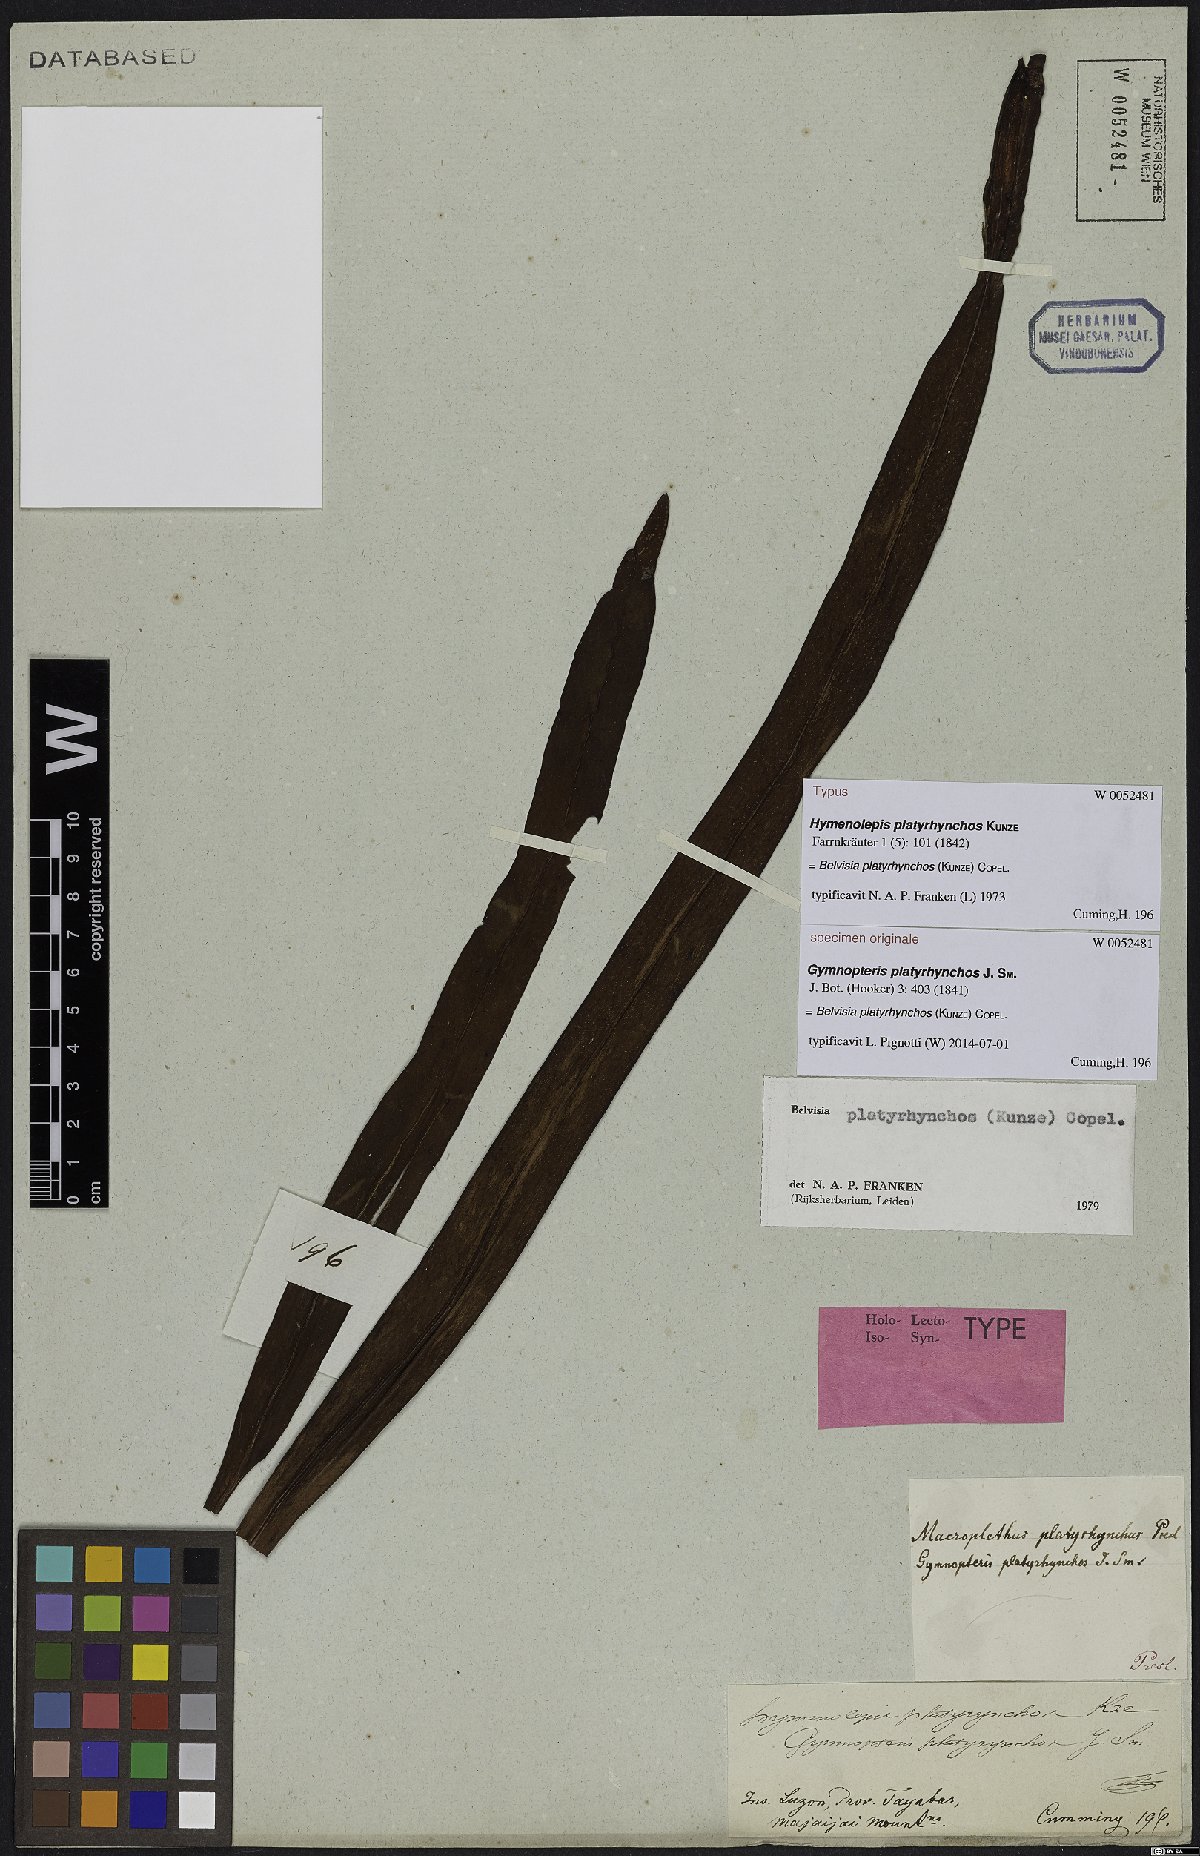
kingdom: Plantae
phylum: Tracheophyta
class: Polypodiopsida
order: Polypodiales
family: Polypodiaceae
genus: Lepisorus
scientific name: Lepisorus platyrhynchos
